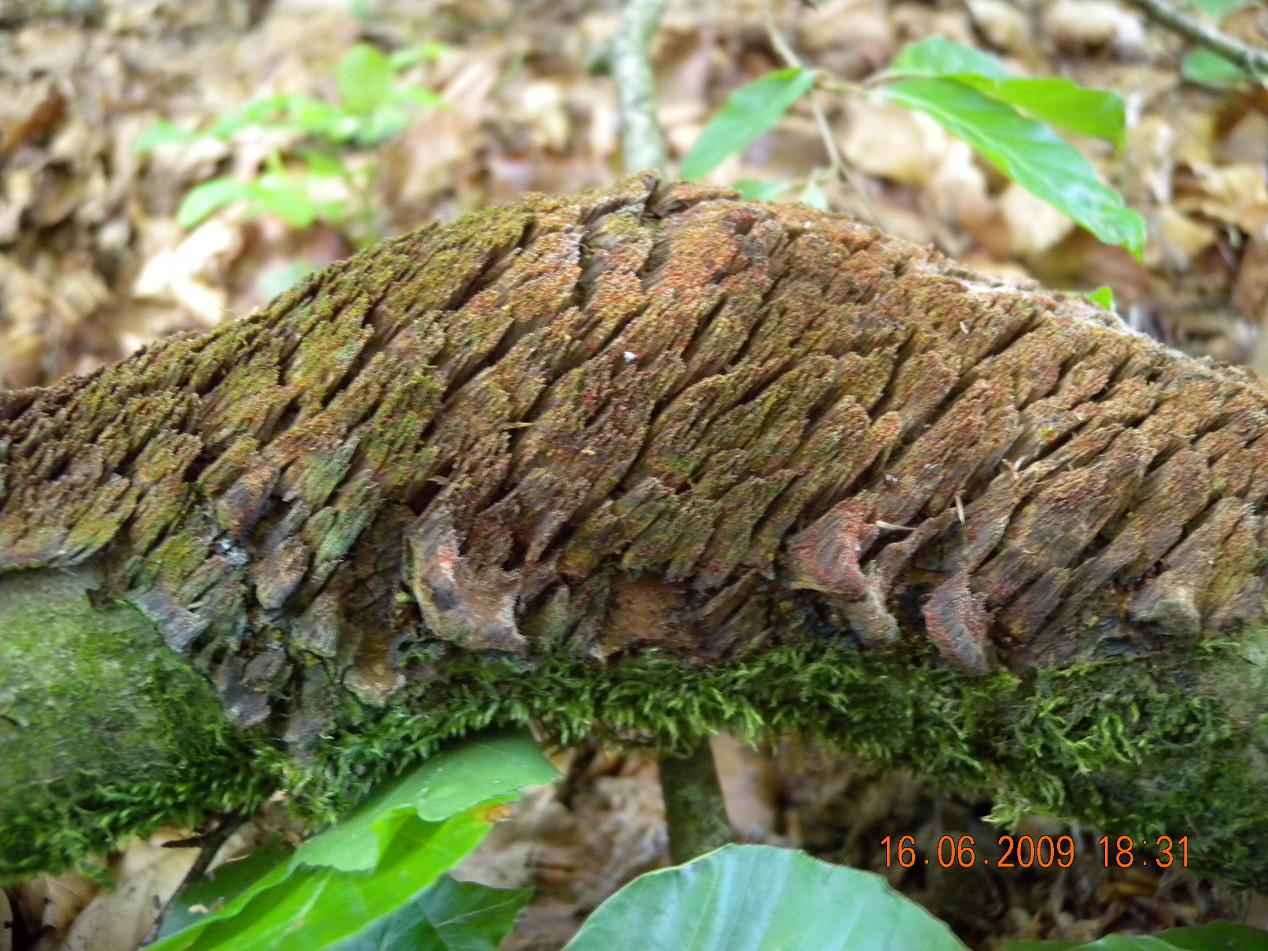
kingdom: Fungi
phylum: Basidiomycota
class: Agaricomycetes
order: Hymenochaetales
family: Hymenochaetaceae
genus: Mensularia
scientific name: Mensularia nodulosa
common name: bøge-spejlporesvamp
